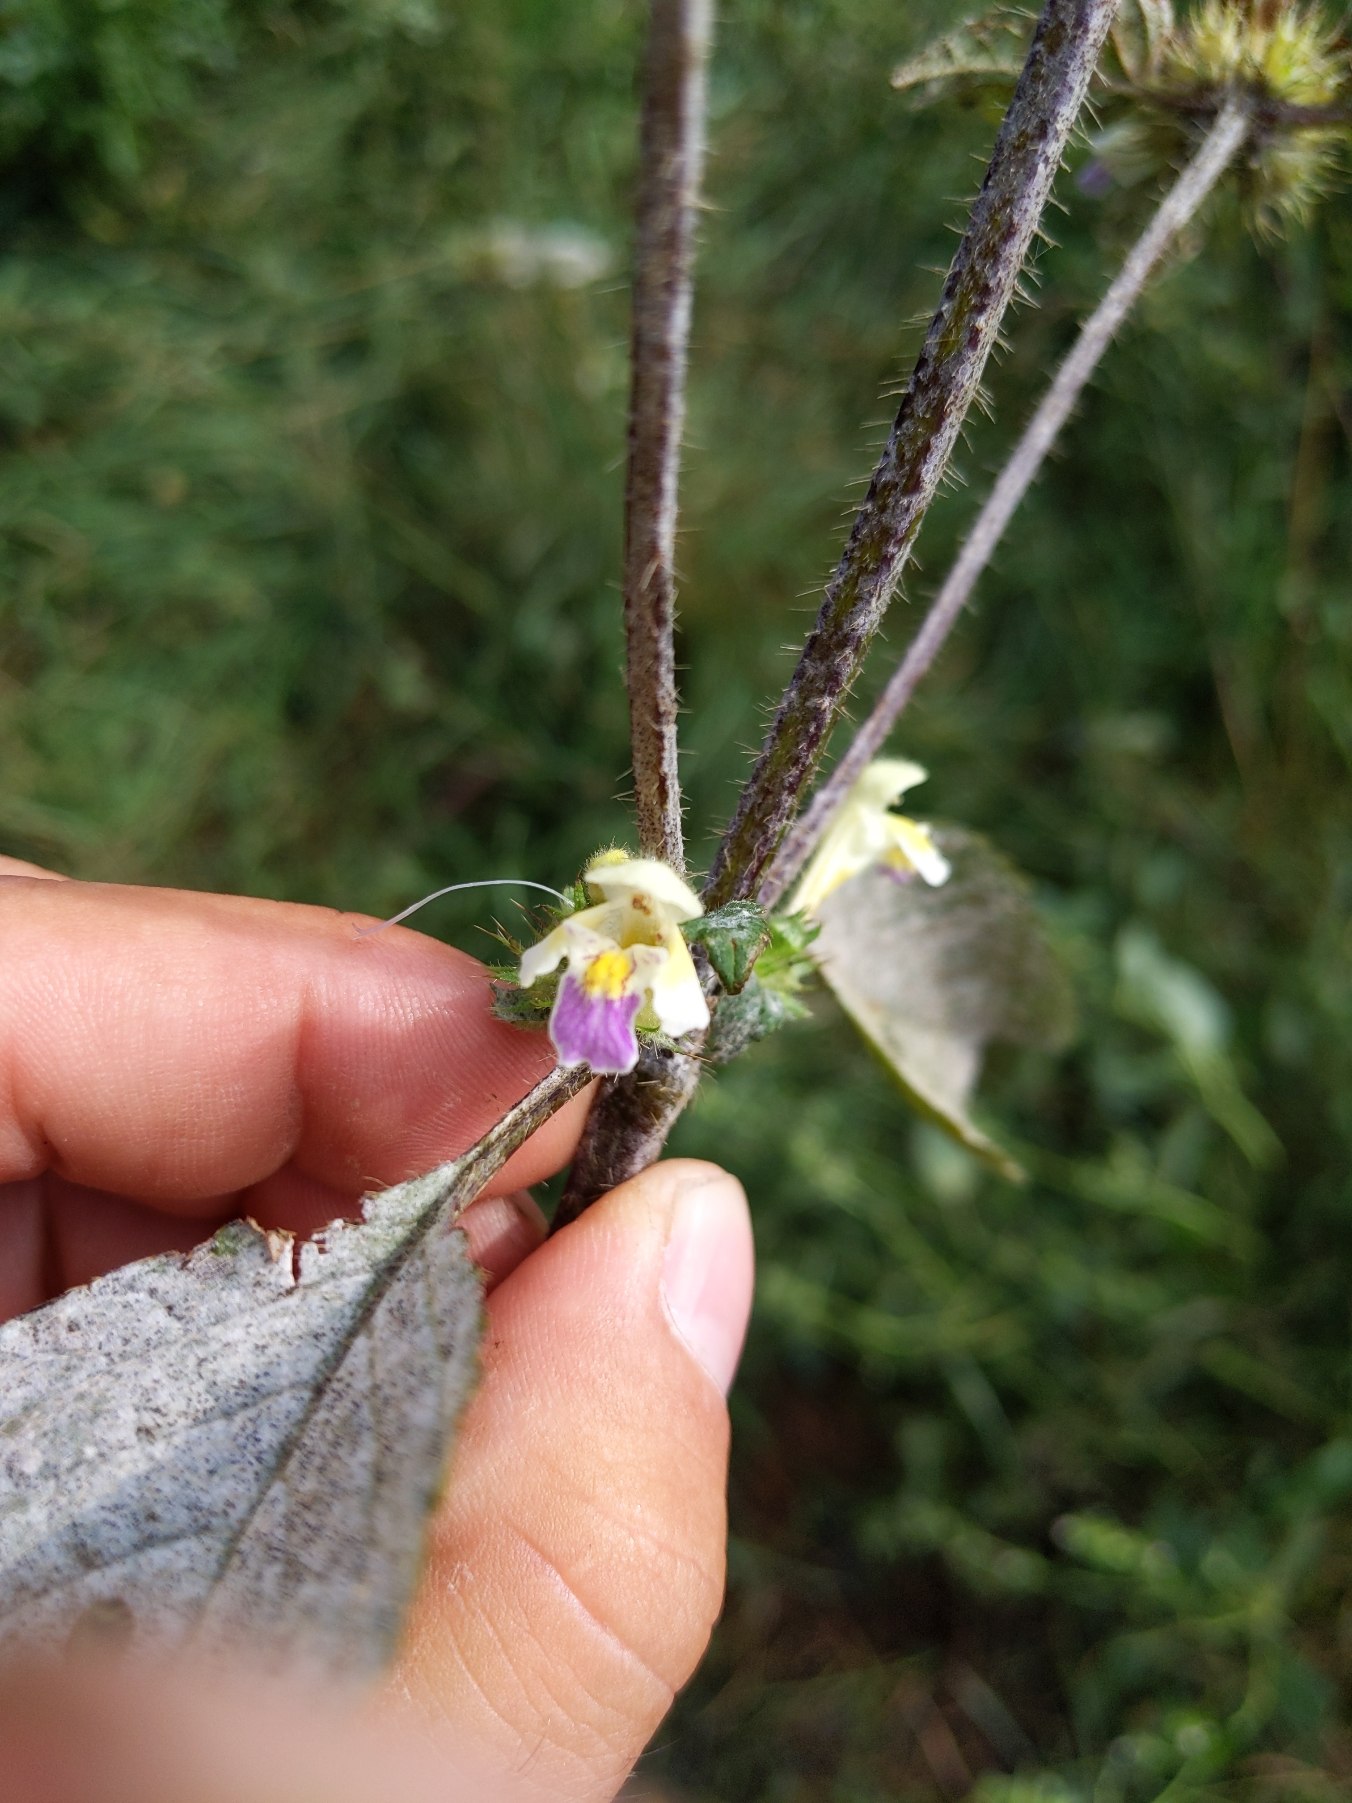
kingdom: Plantae
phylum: Tracheophyta
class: Magnoliopsida
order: Lamiales
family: Lamiaceae
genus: Galeopsis
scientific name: Galeopsis speciosa
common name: Hamp-hanekro
